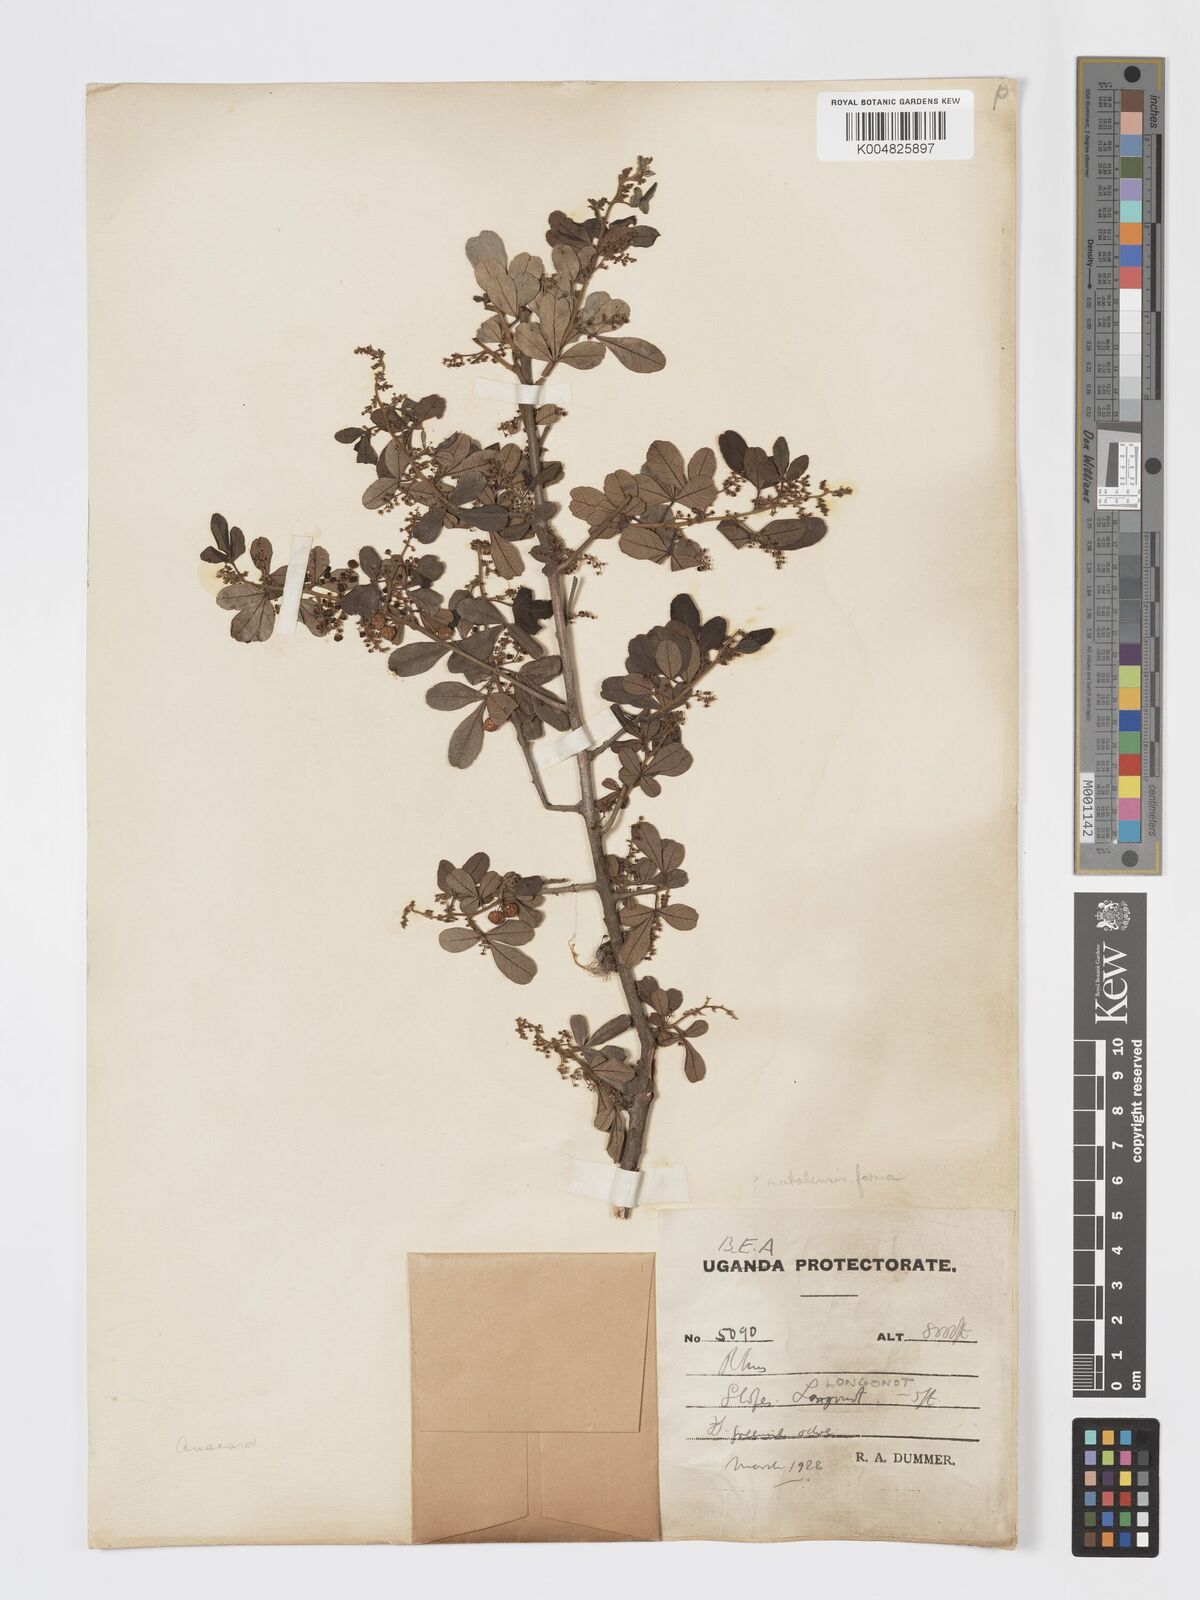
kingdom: Plantae
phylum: Tracheophyta
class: Magnoliopsida
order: Sapindales
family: Anacardiaceae
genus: Searsia
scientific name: Searsia natalensis
